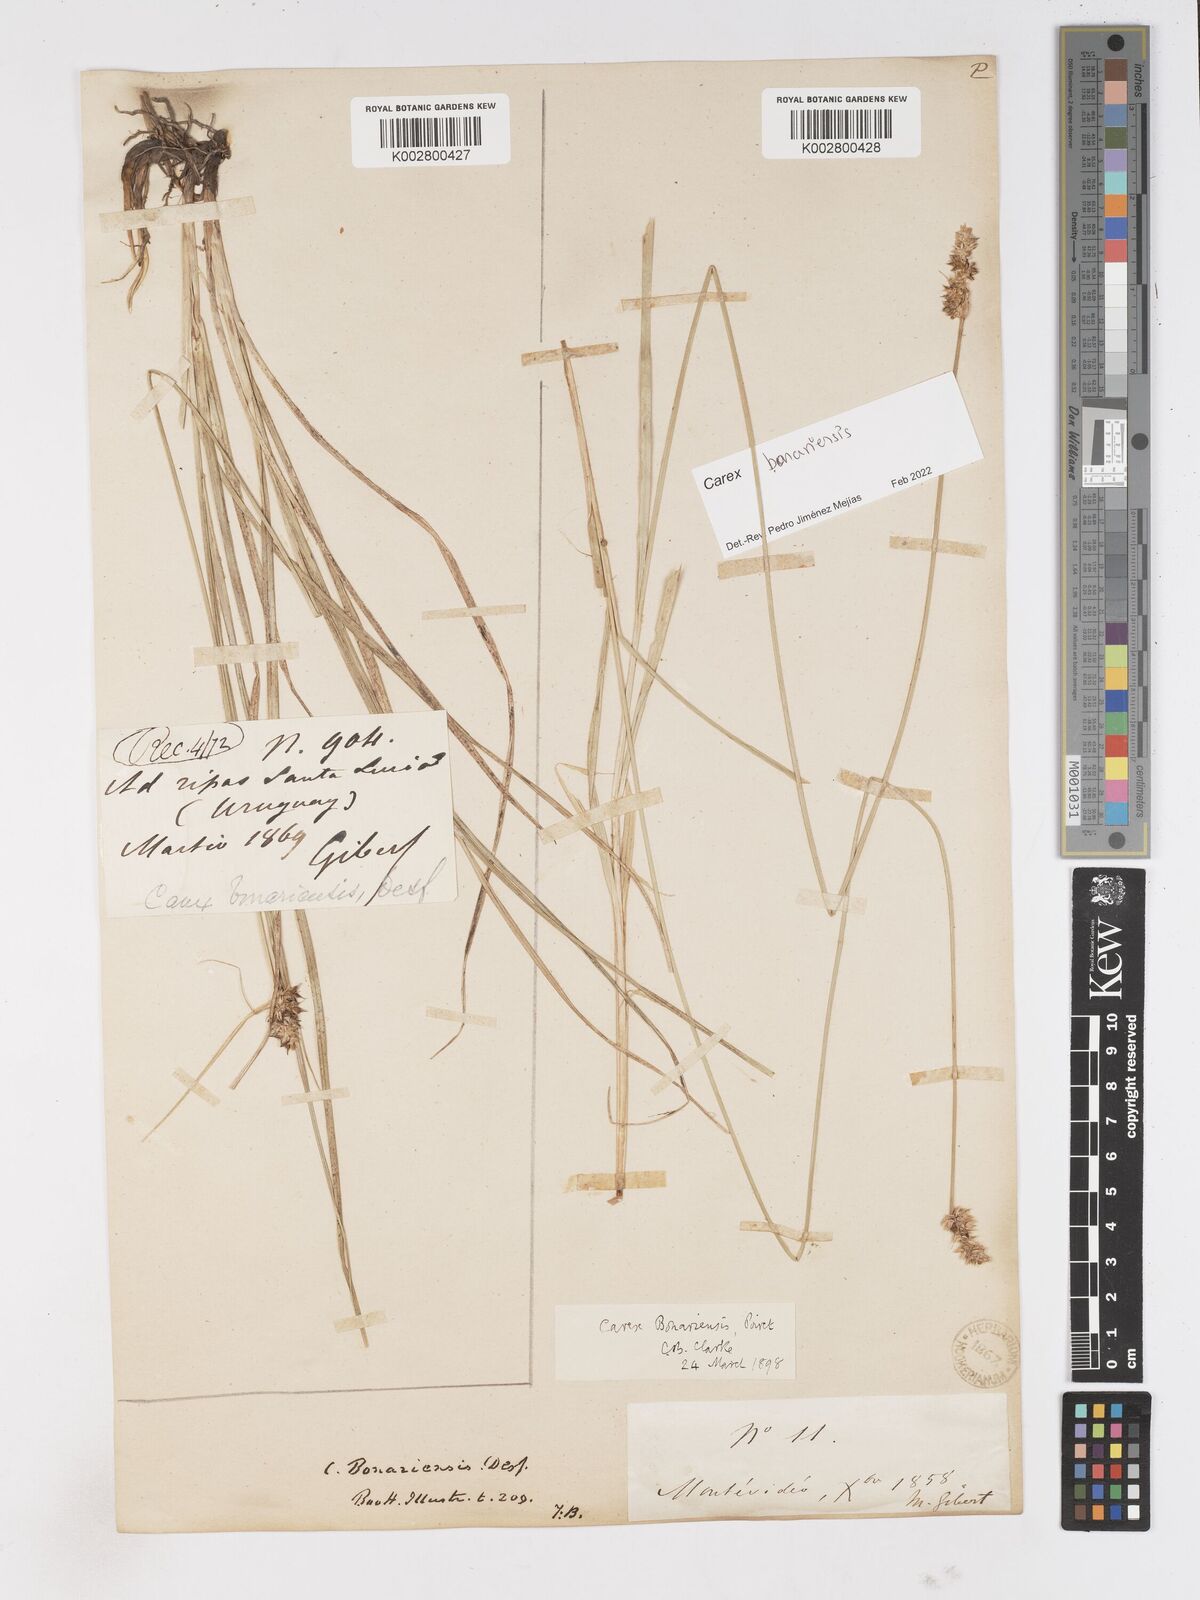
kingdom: Plantae
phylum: Tracheophyta
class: Liliopsida
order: Poales
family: Cyperaceae
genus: Carex
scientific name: Carex bonariensis
